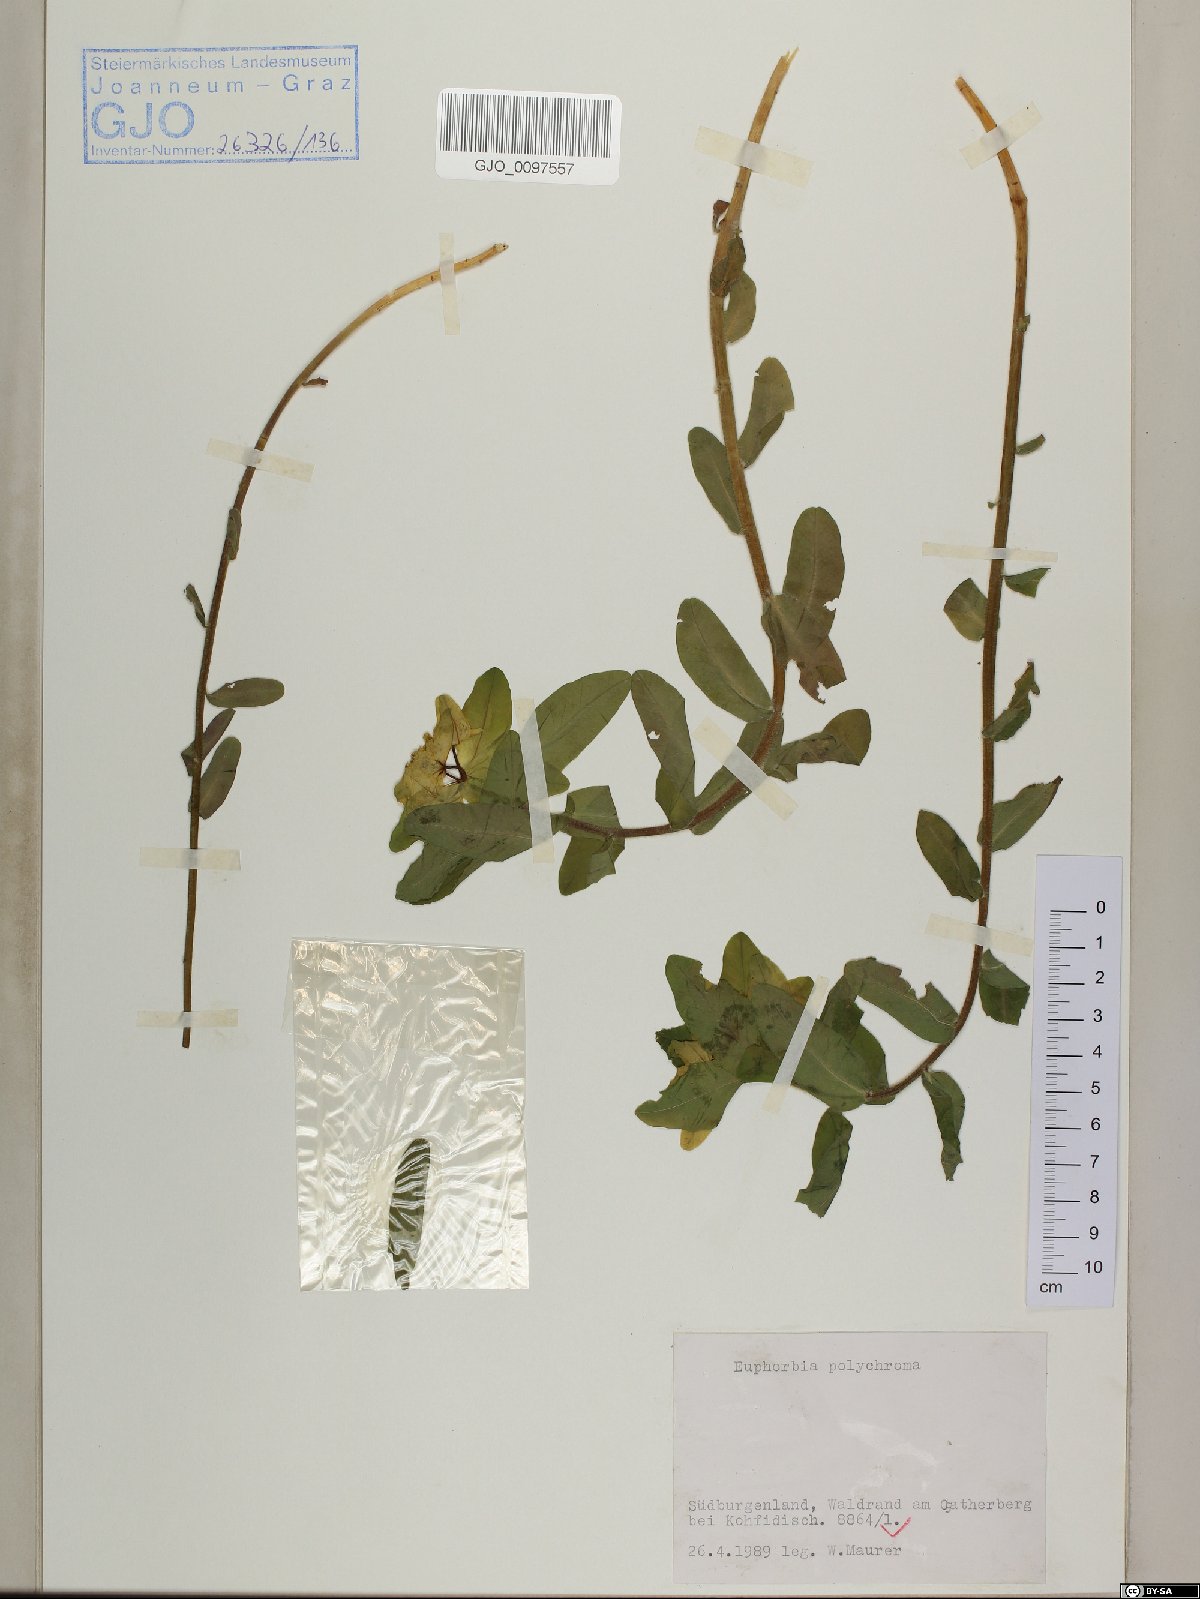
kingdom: Plantae
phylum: Tracheophyta
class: Magnoliopsida
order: Malpighiales
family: Euphorbiaceae
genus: Euphorbia
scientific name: Euphorbia epithymoides
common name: Cushion spurge
